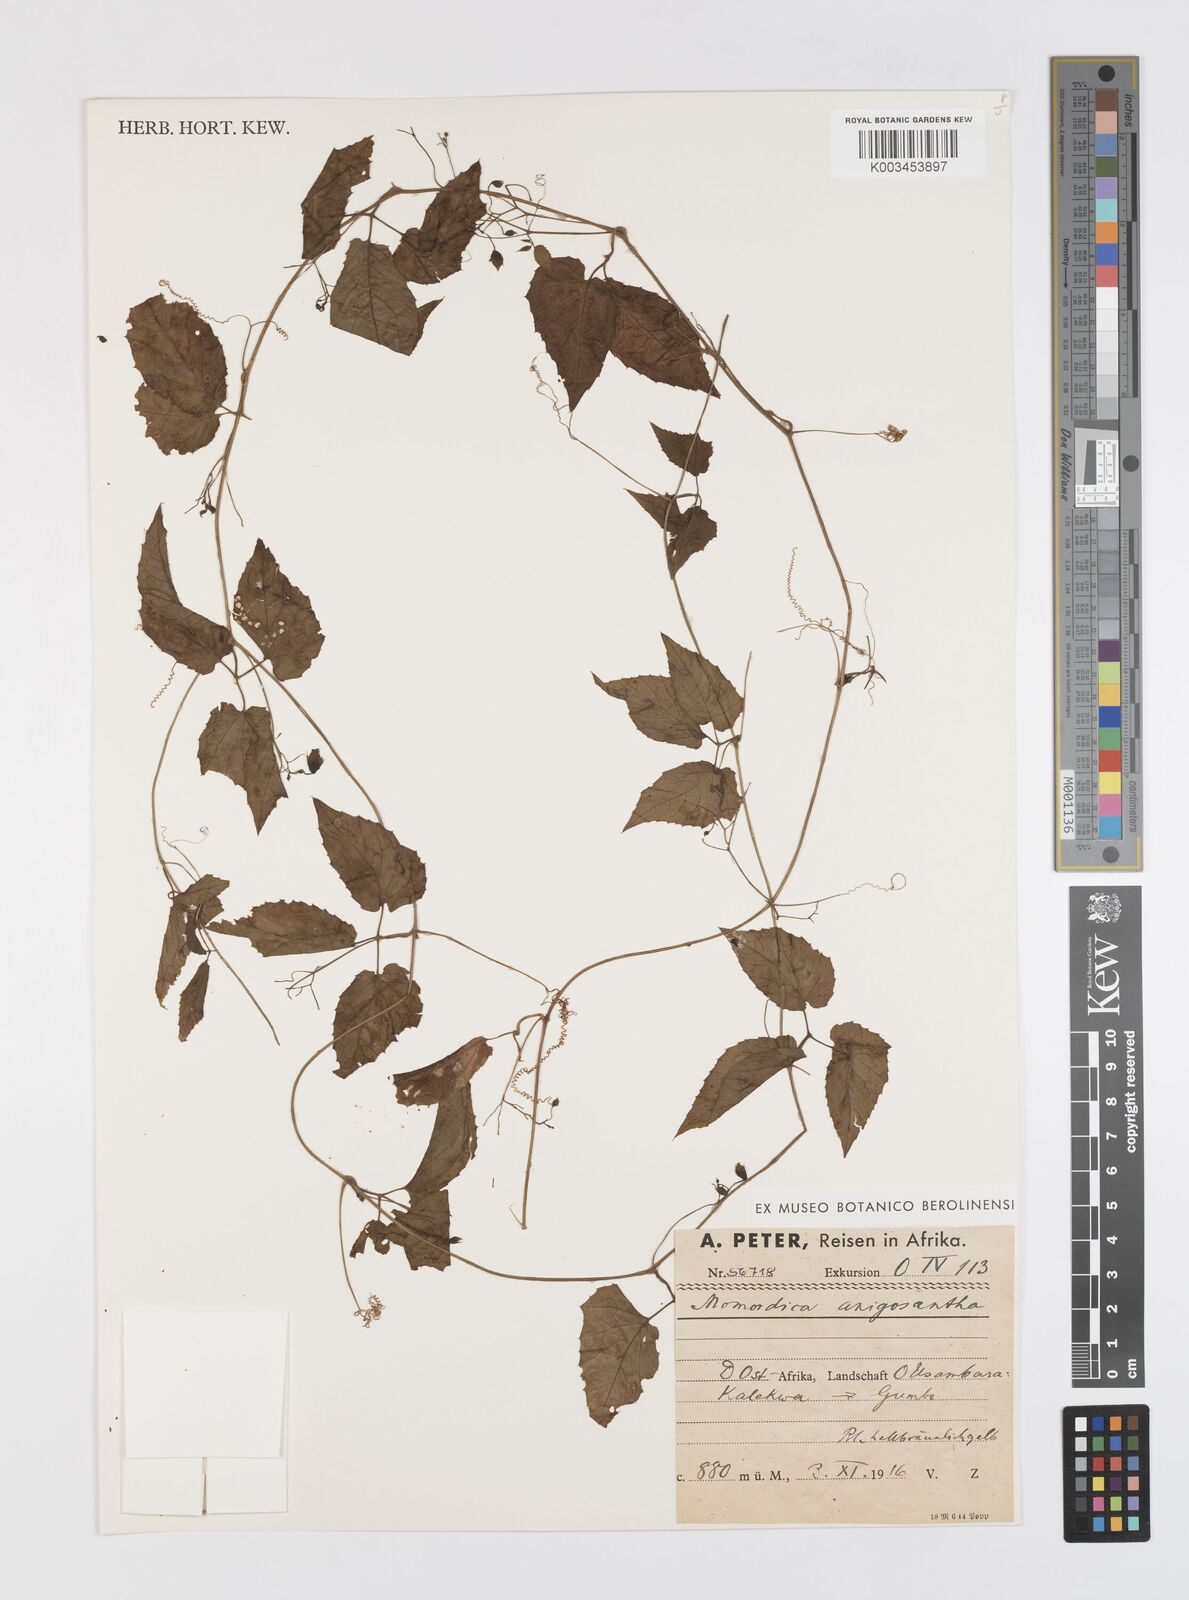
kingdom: Plantae
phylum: Tracheophyta
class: Magnoliopsida
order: Cucurbitales
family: Cucurbitaceae
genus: Momordica
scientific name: Momordica anigosantha
